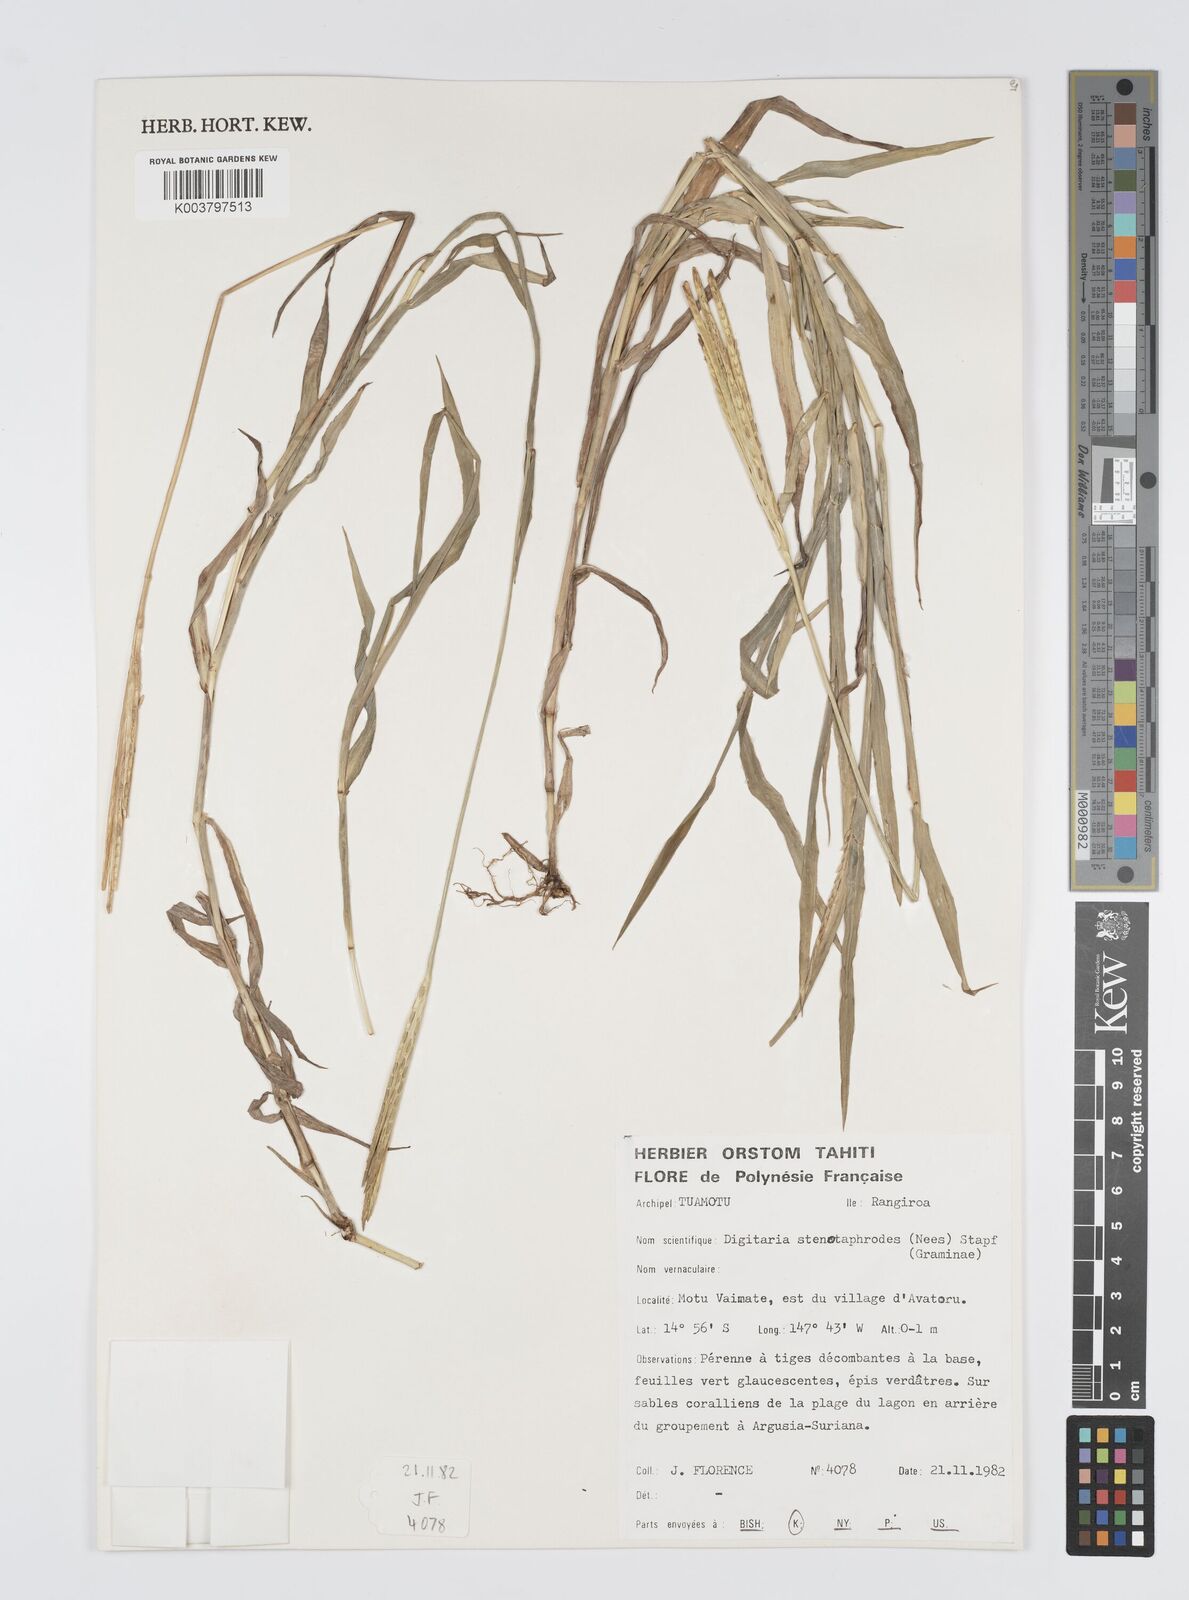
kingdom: Plantae
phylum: Tracheophyta
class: Liliopsida
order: Poales
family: Poaceae
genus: Digitaria
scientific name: Digitaria stenotaphrodes
